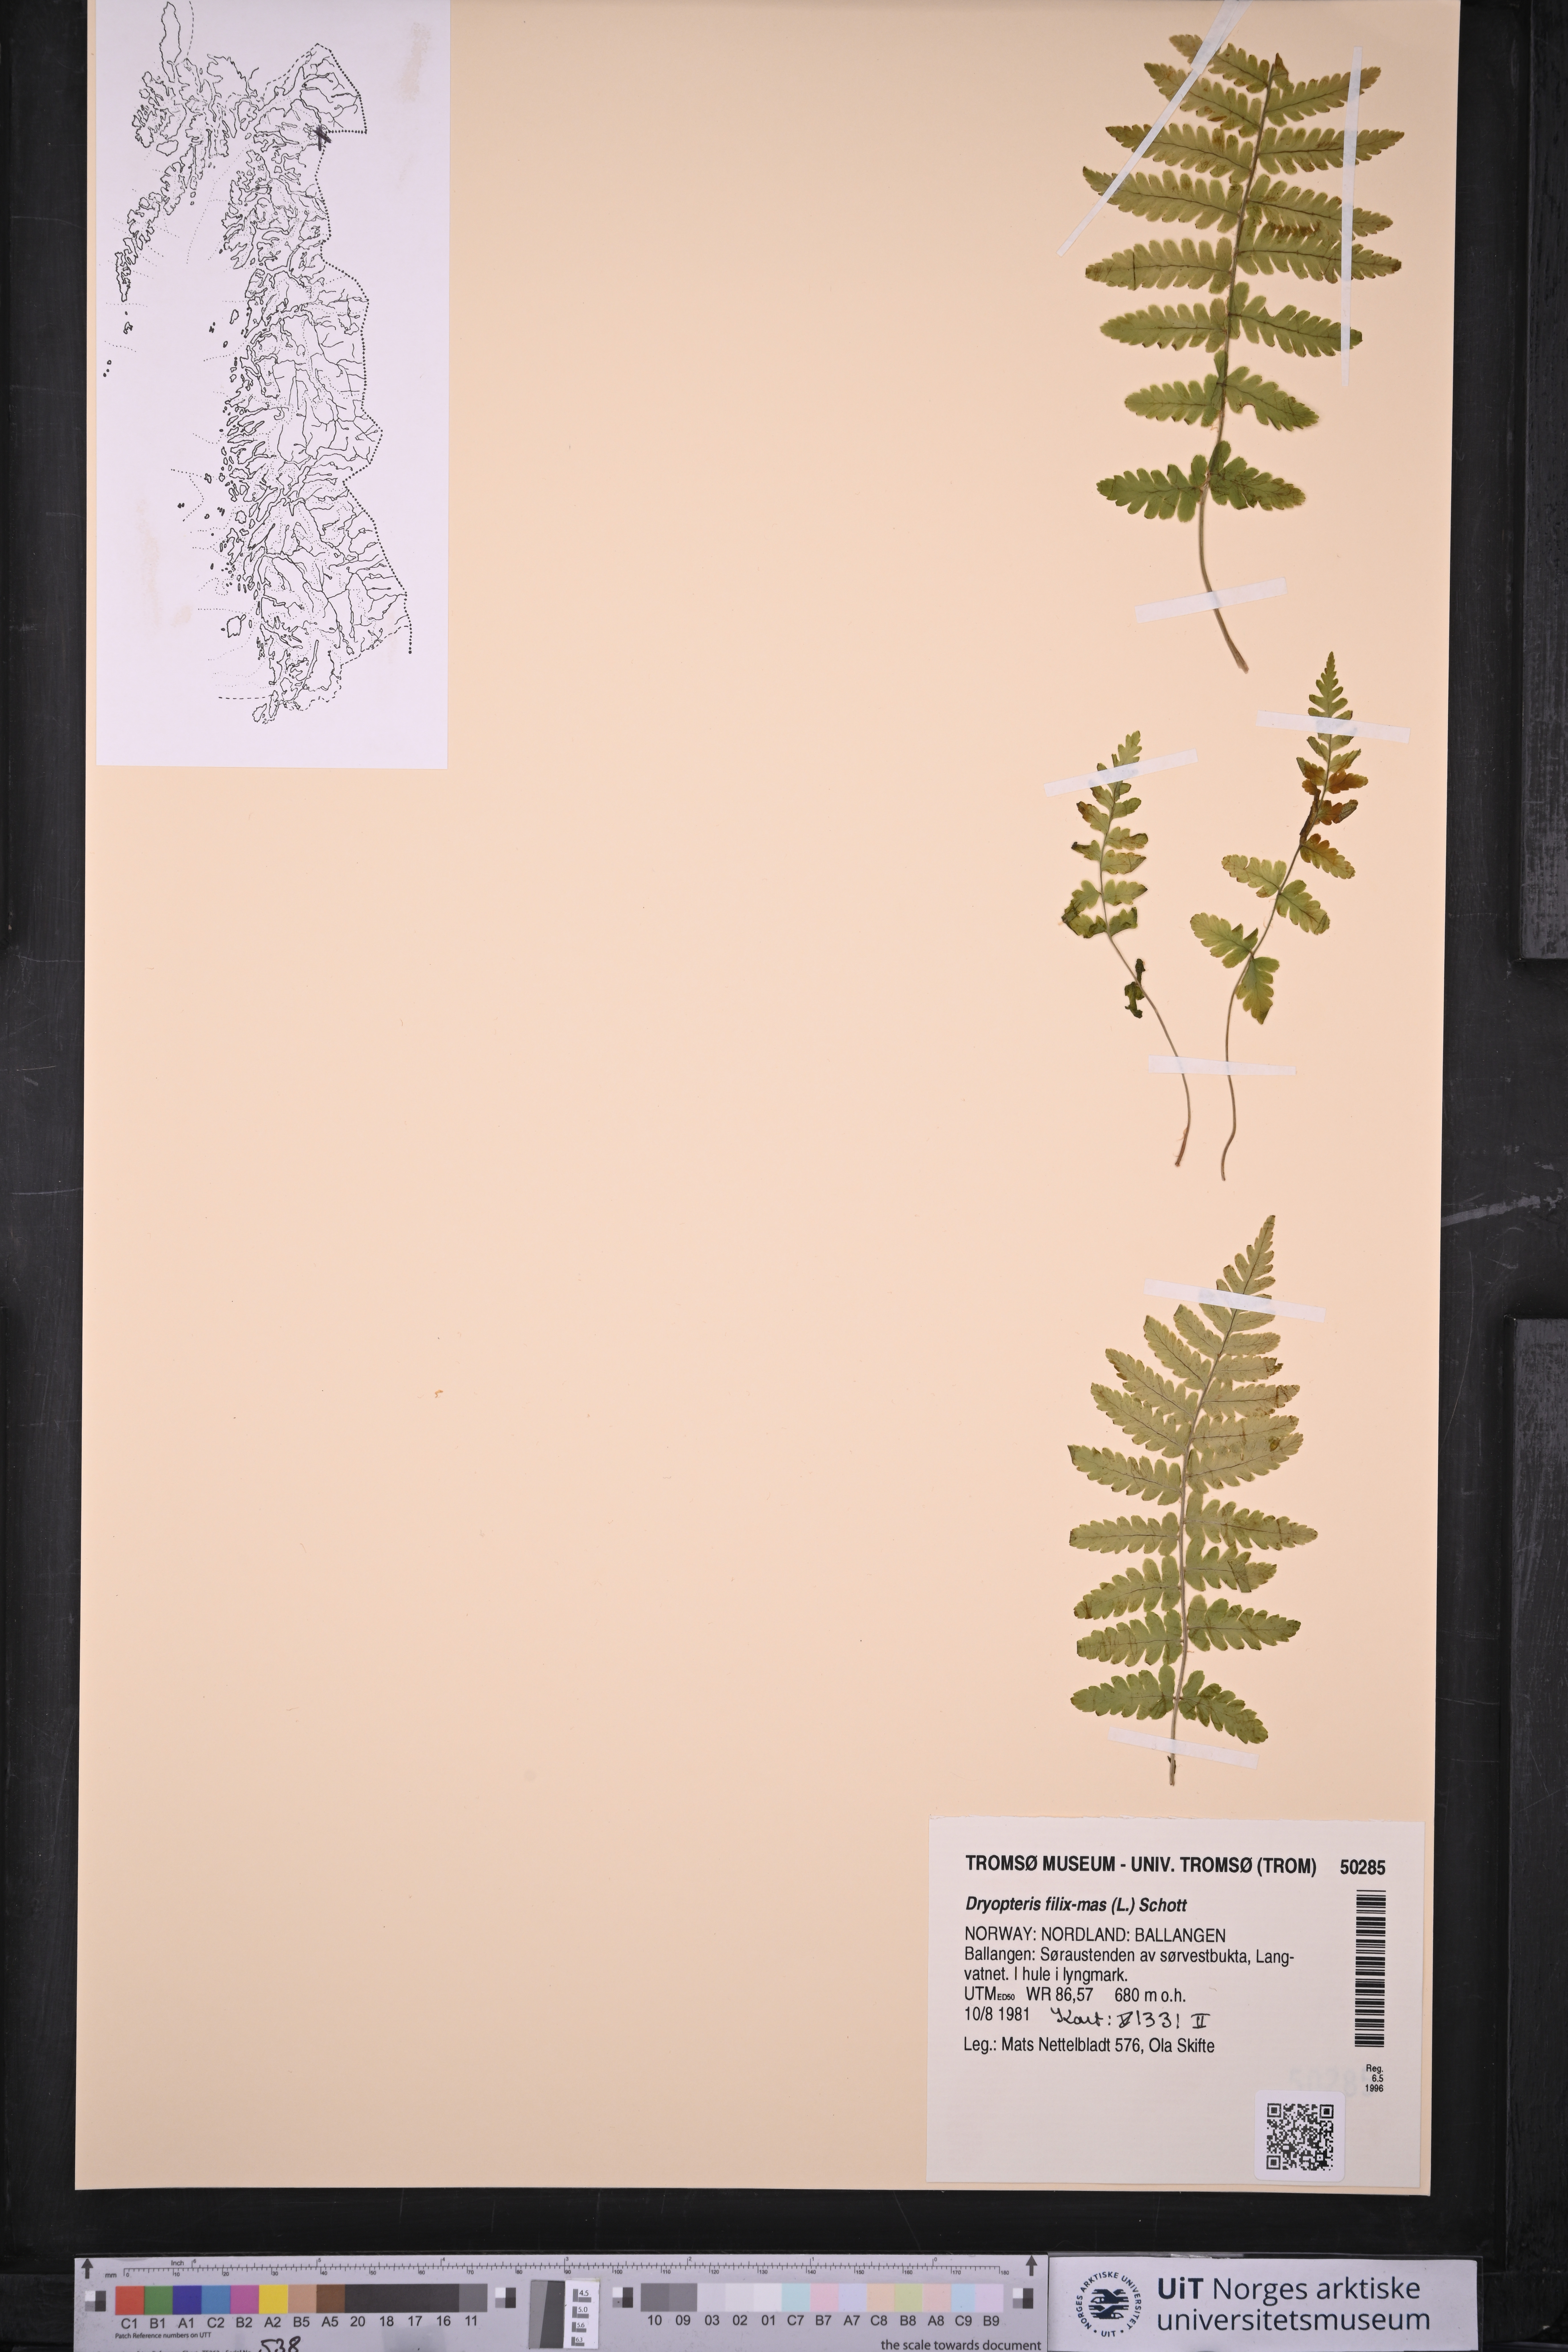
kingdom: Plantae
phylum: Tracheophyta
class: Polypodiopsida
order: Polypodiales
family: Dryopteridaceae
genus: Dryopteris
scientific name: Dryopteris filix-mas
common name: Male fern
